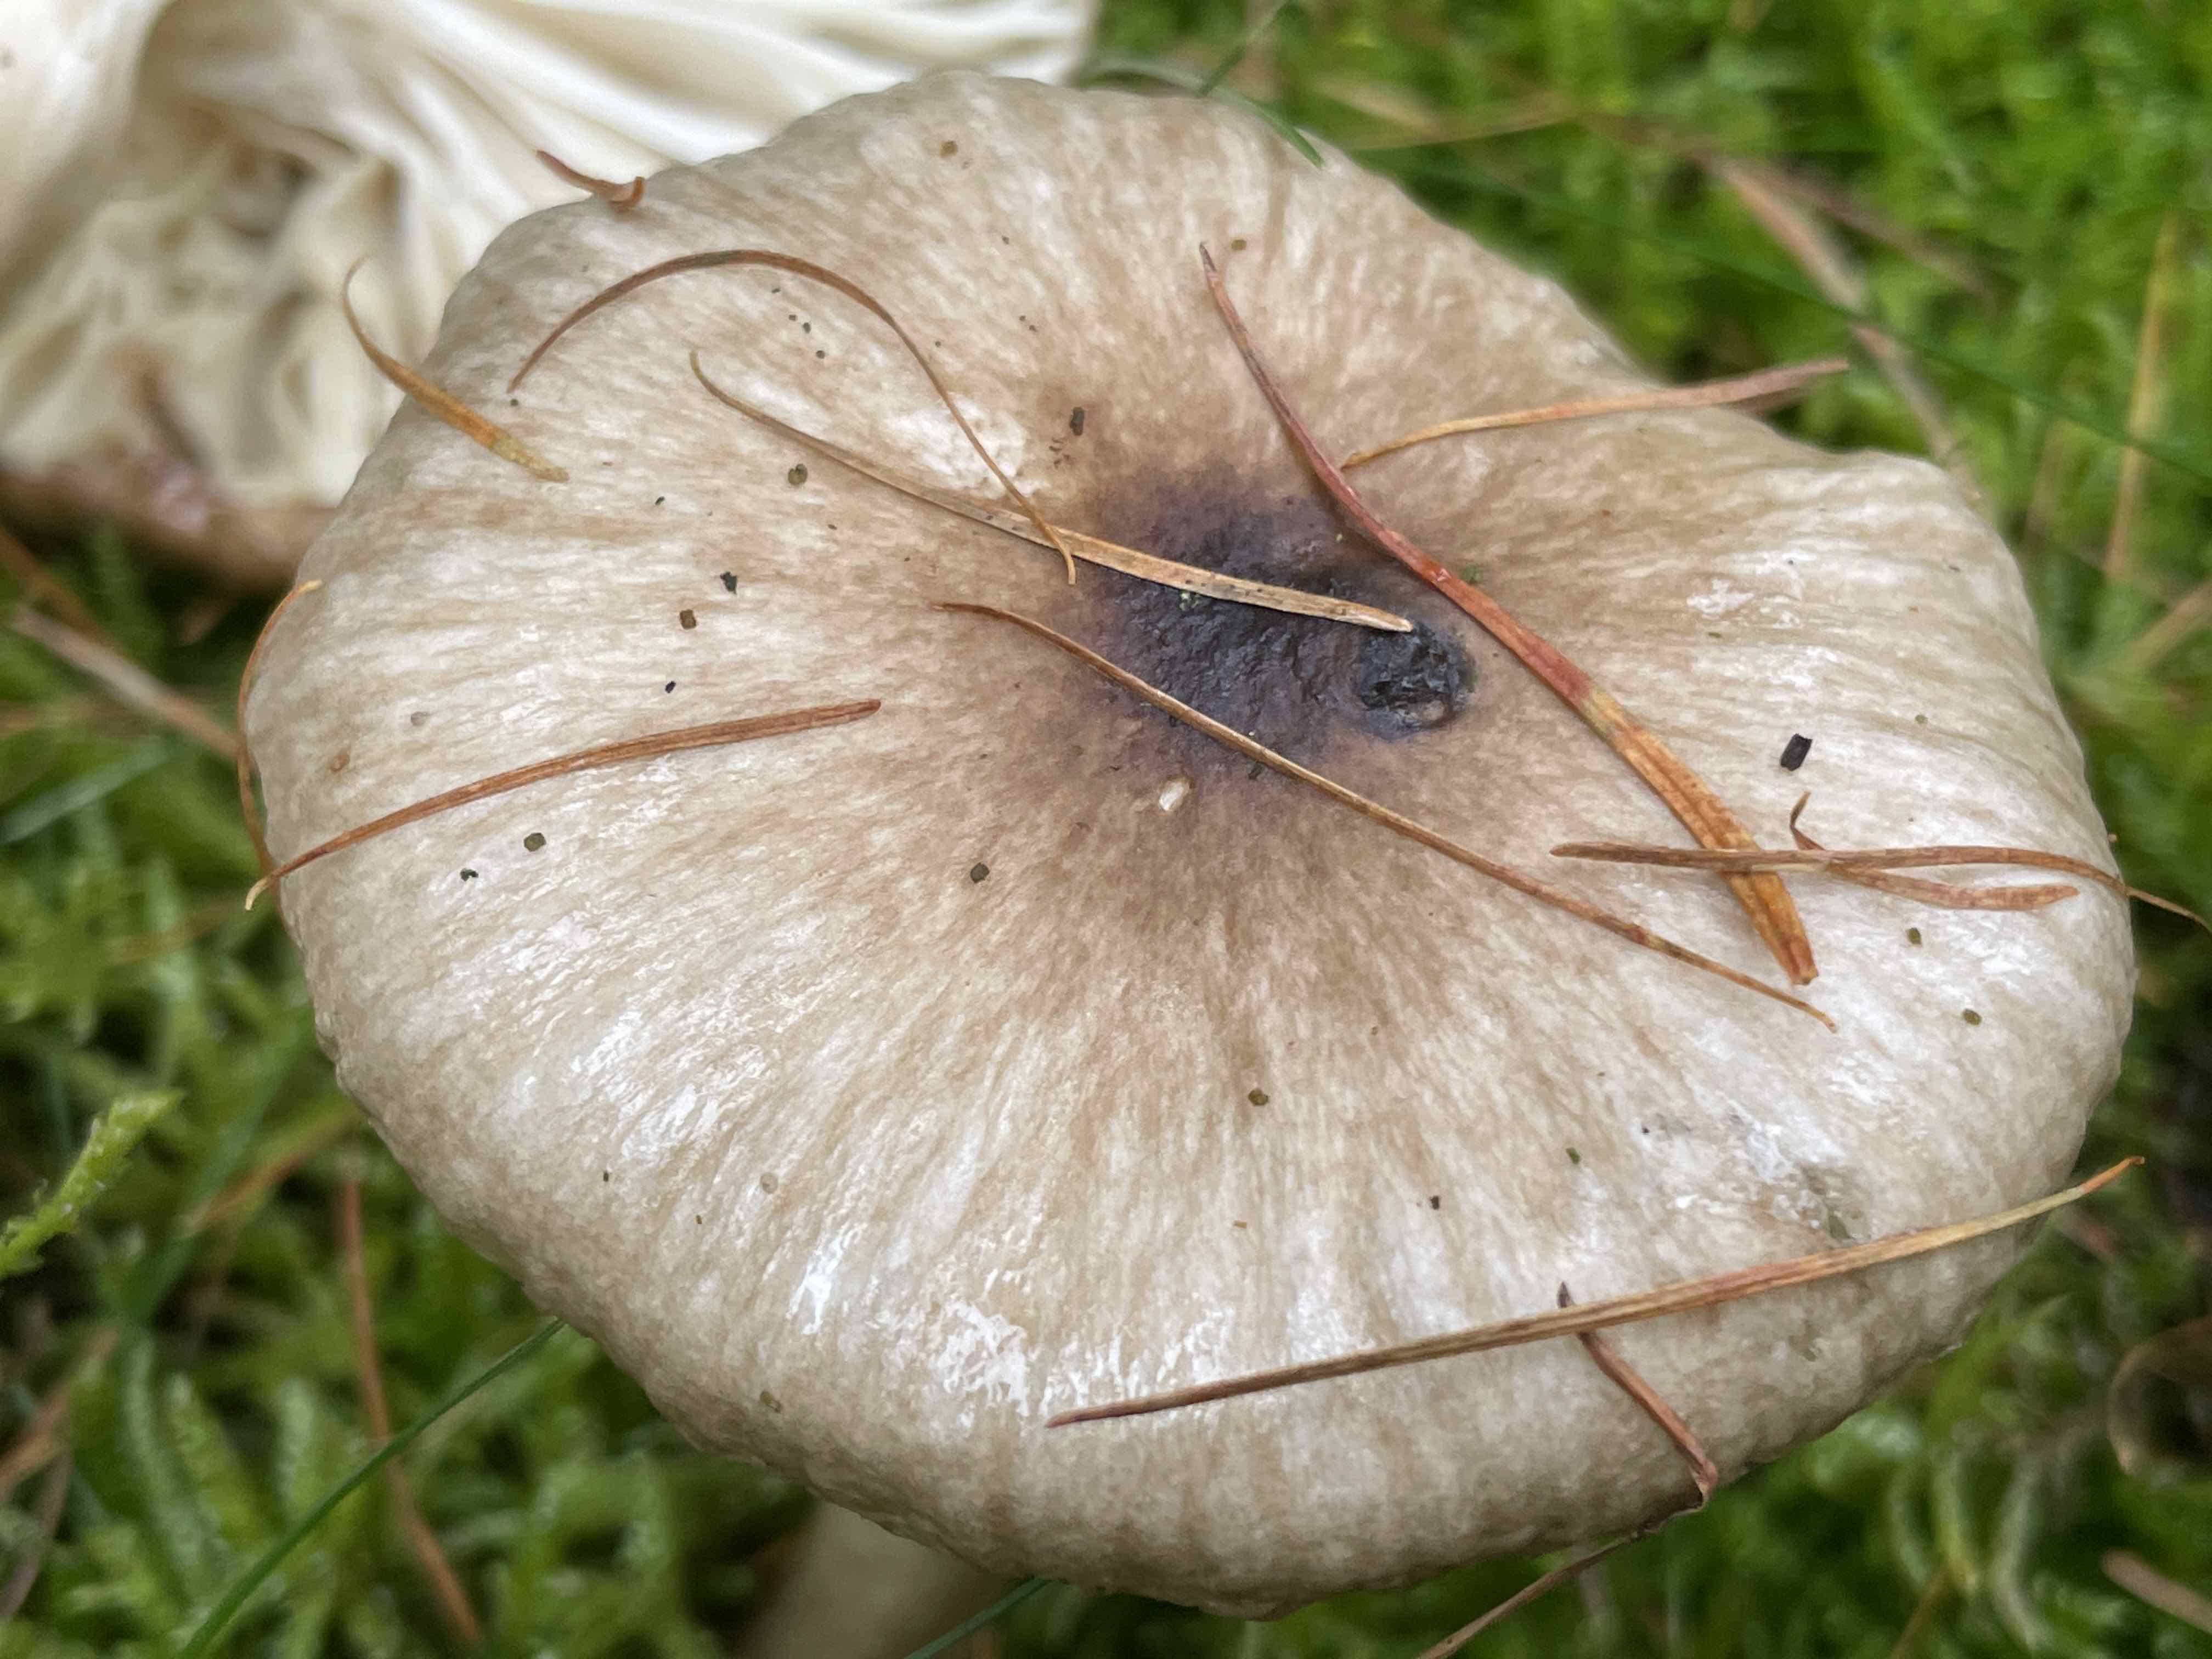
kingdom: Fungi
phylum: Basidiomycota
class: Agaricomycetes
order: Agaricales
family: Hygrophoraceae
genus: Hygrophorus
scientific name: Hygrophorus olivaceoalbus
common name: hvidbrun sneglehat
